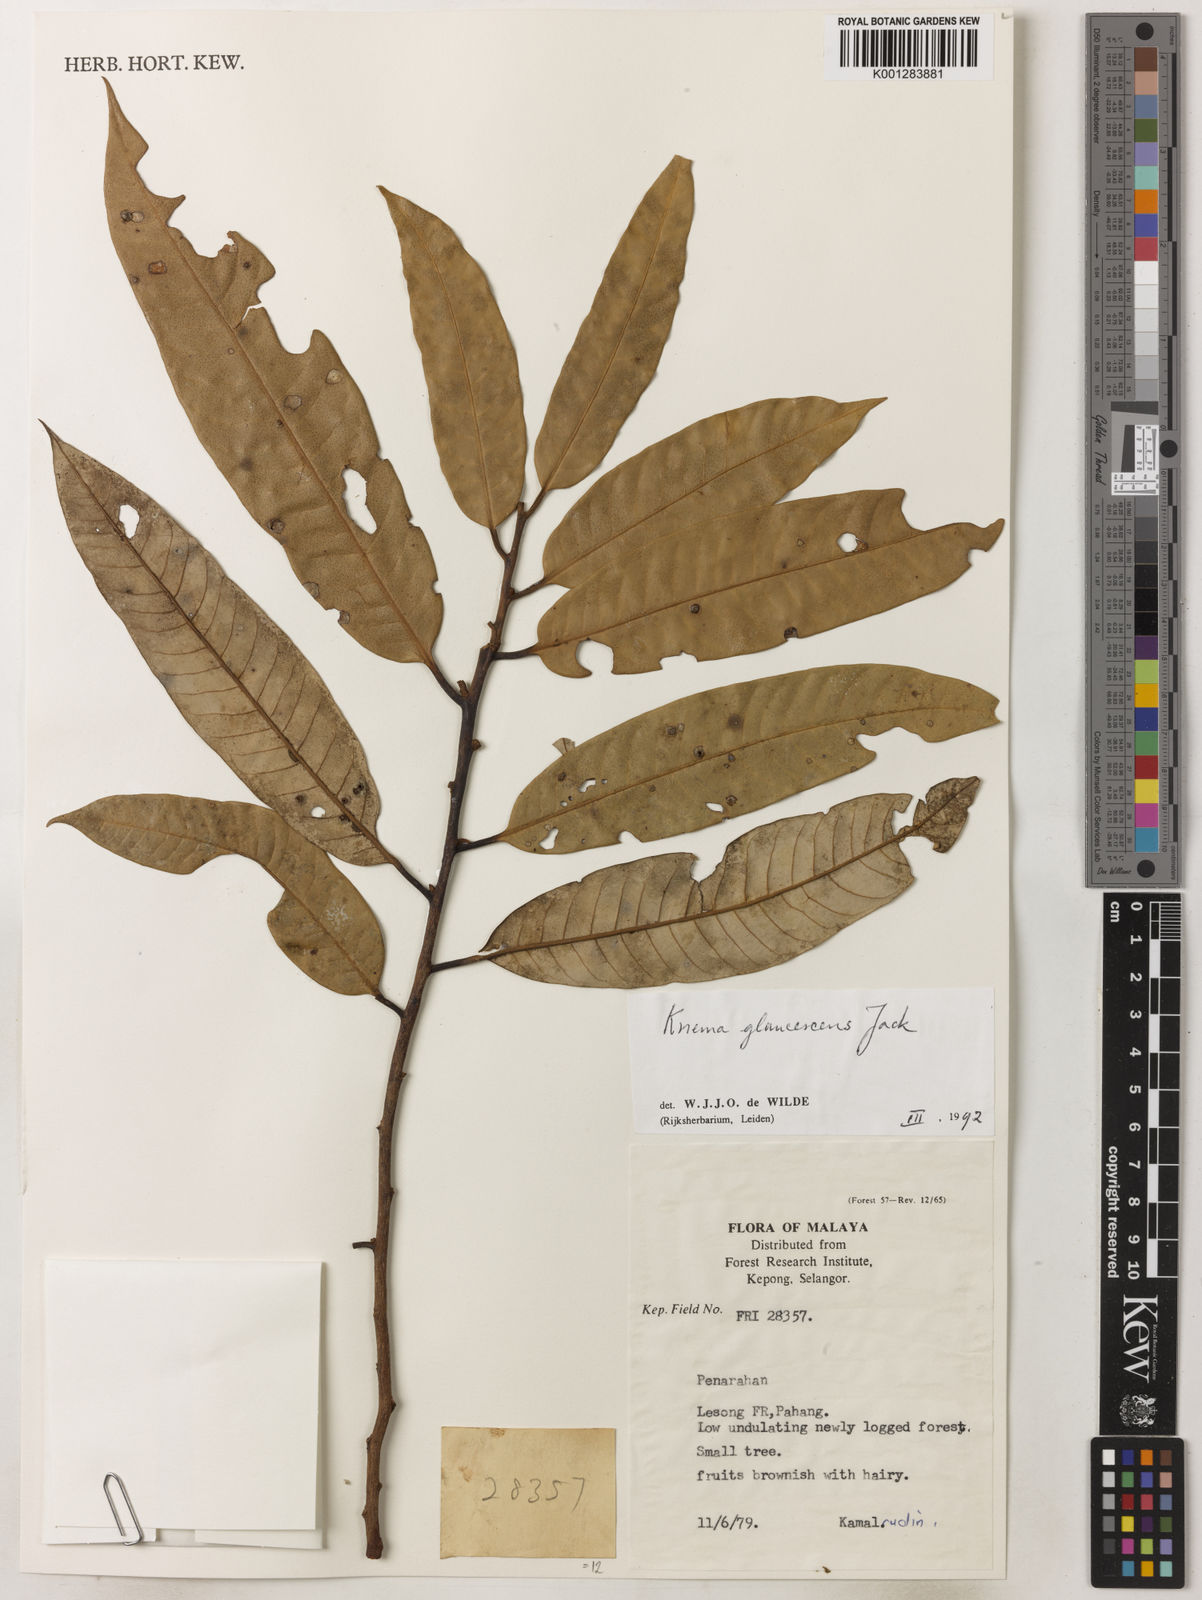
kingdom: Plantae
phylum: Tracheophyta
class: Magnoliopsida
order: Magnoliales
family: Myristicaceae
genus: Knema
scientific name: Knema cinerea
